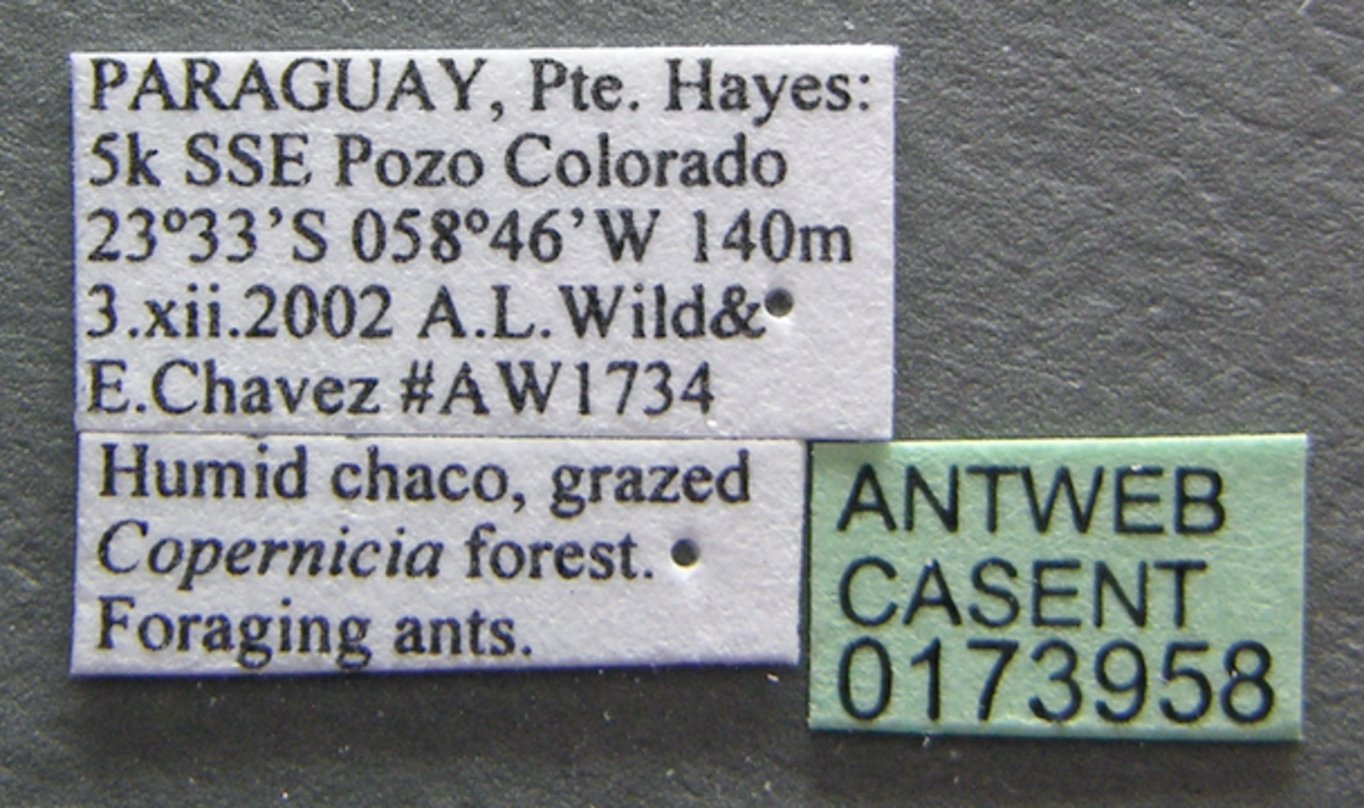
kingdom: Animalia
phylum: Arthropoda
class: Insecta
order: Hymenoptera
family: Formicidae
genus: Cyphomyrmex
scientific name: Cyphomyrmex transversus
